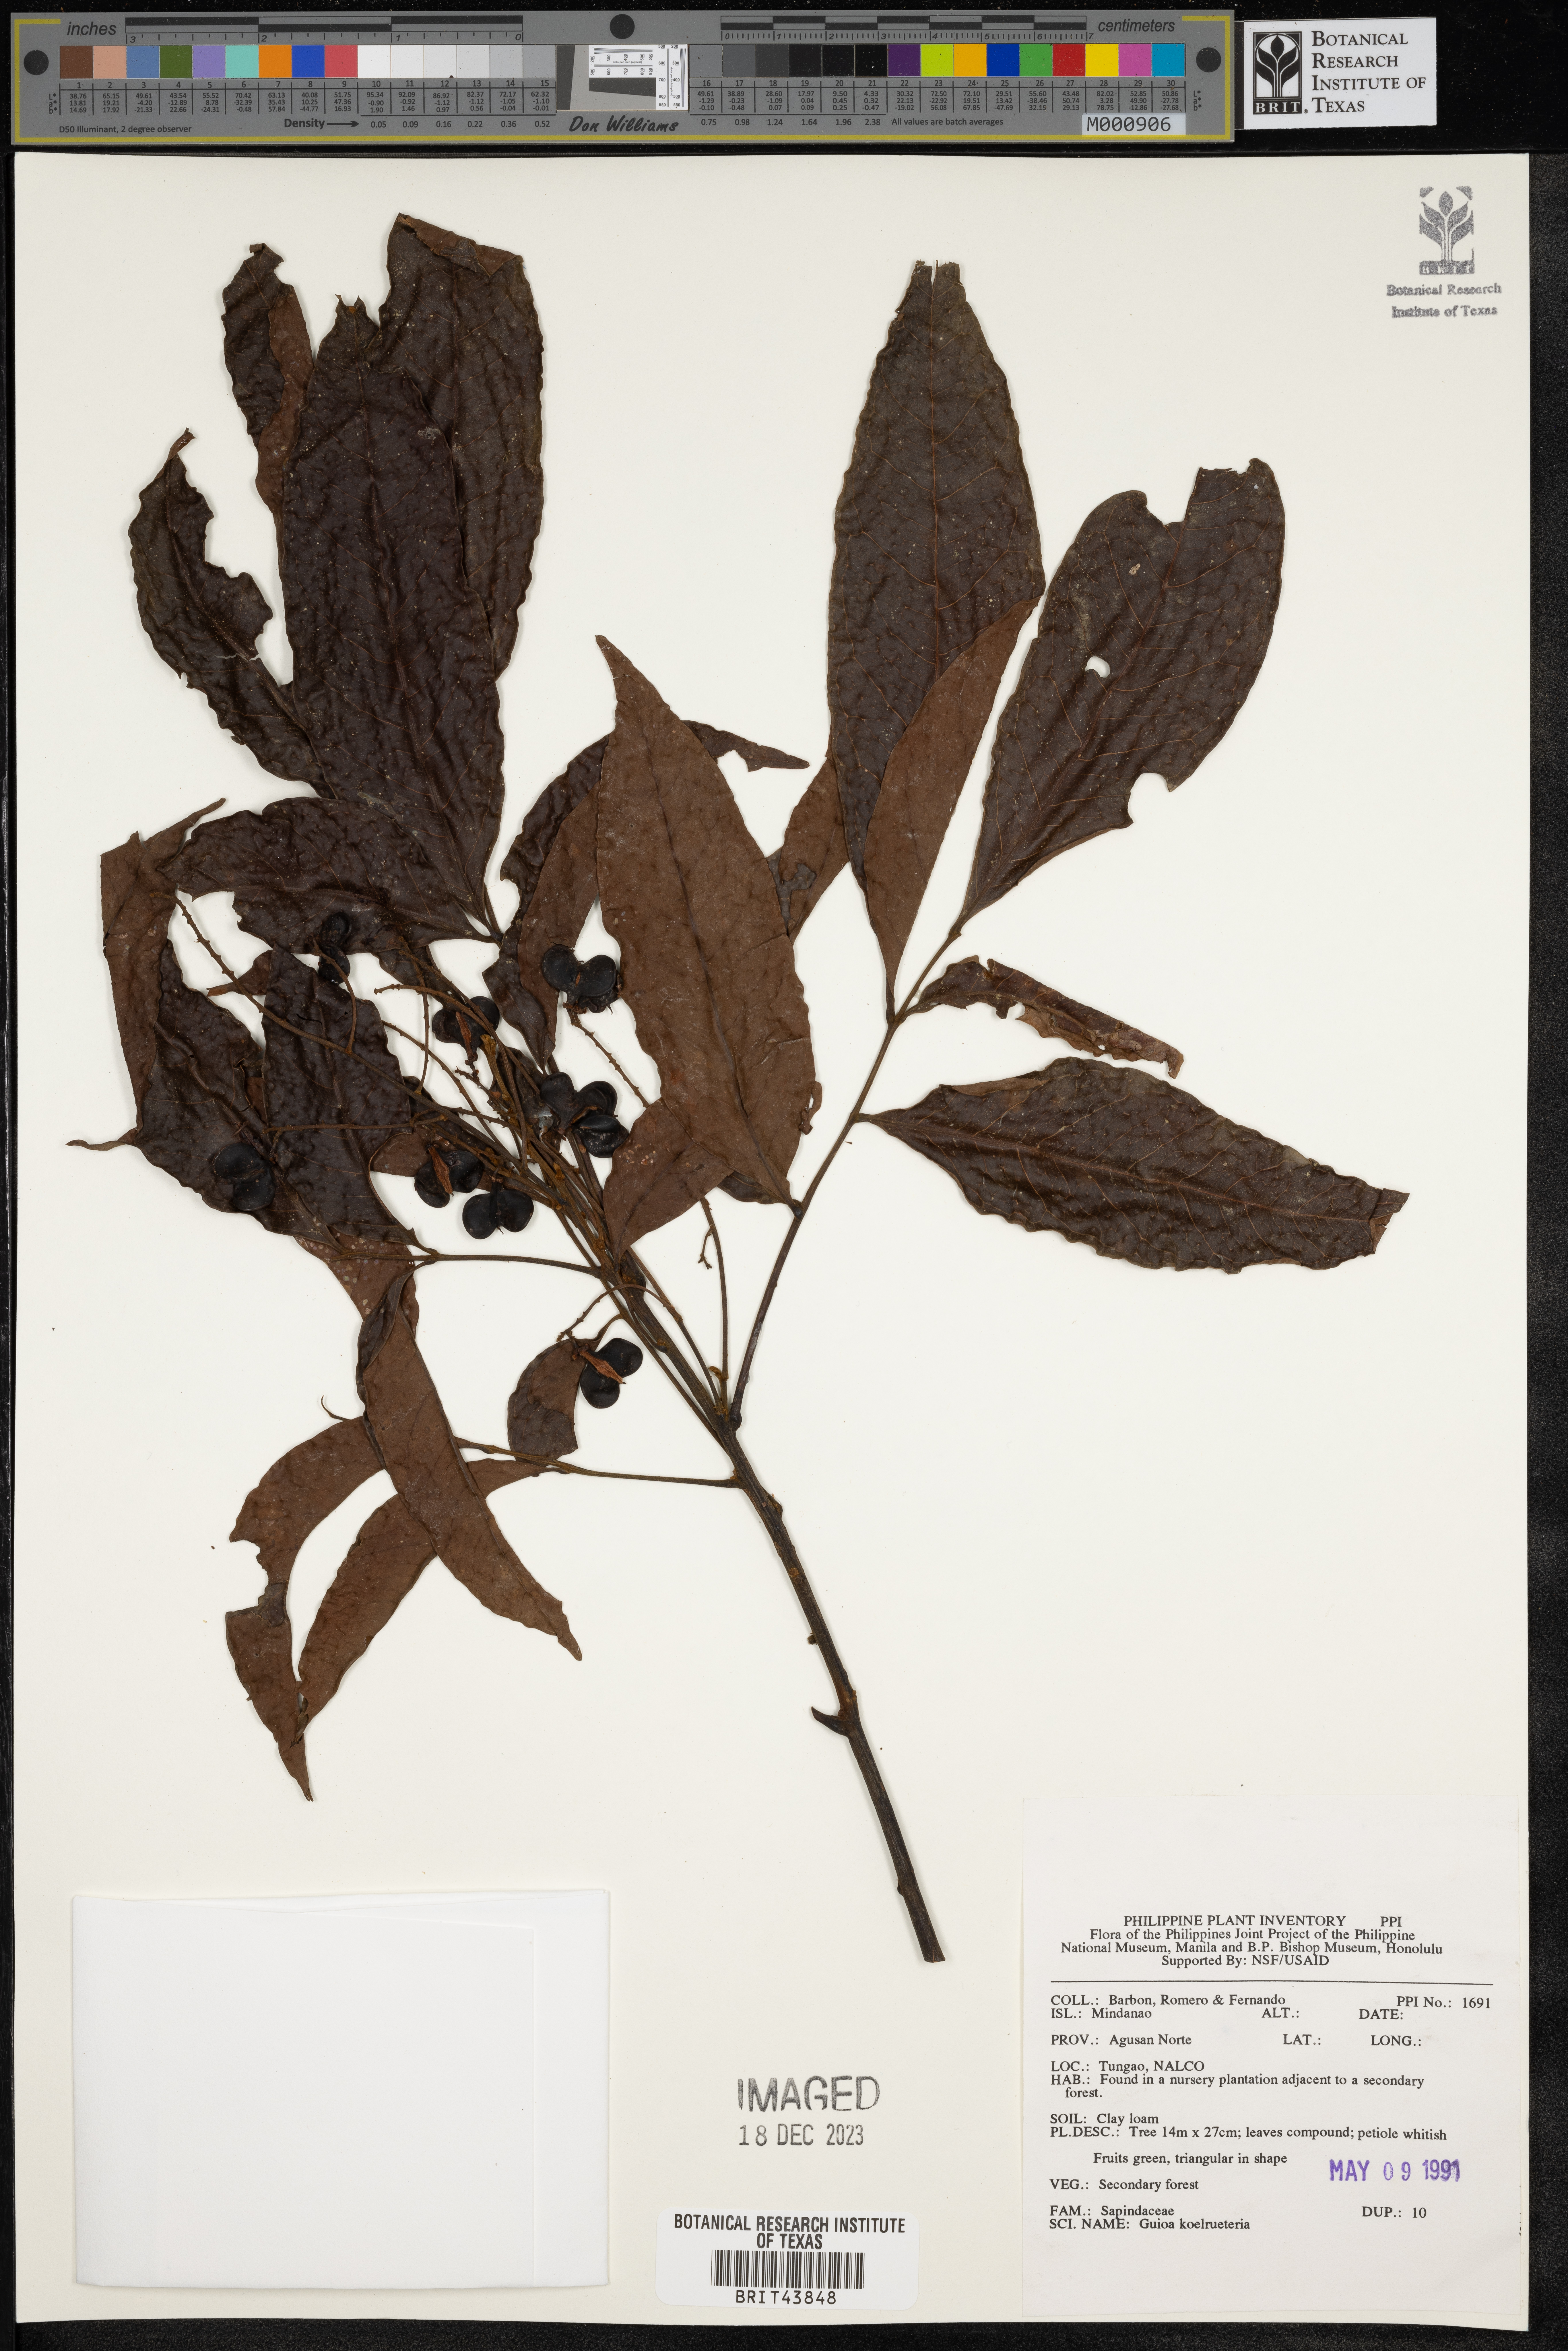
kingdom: Plantae
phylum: Tracheophyta
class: Magnoliopsida
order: Sapindales
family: Sapindaceae
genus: Guioa
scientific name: Guioa koelreuteria
